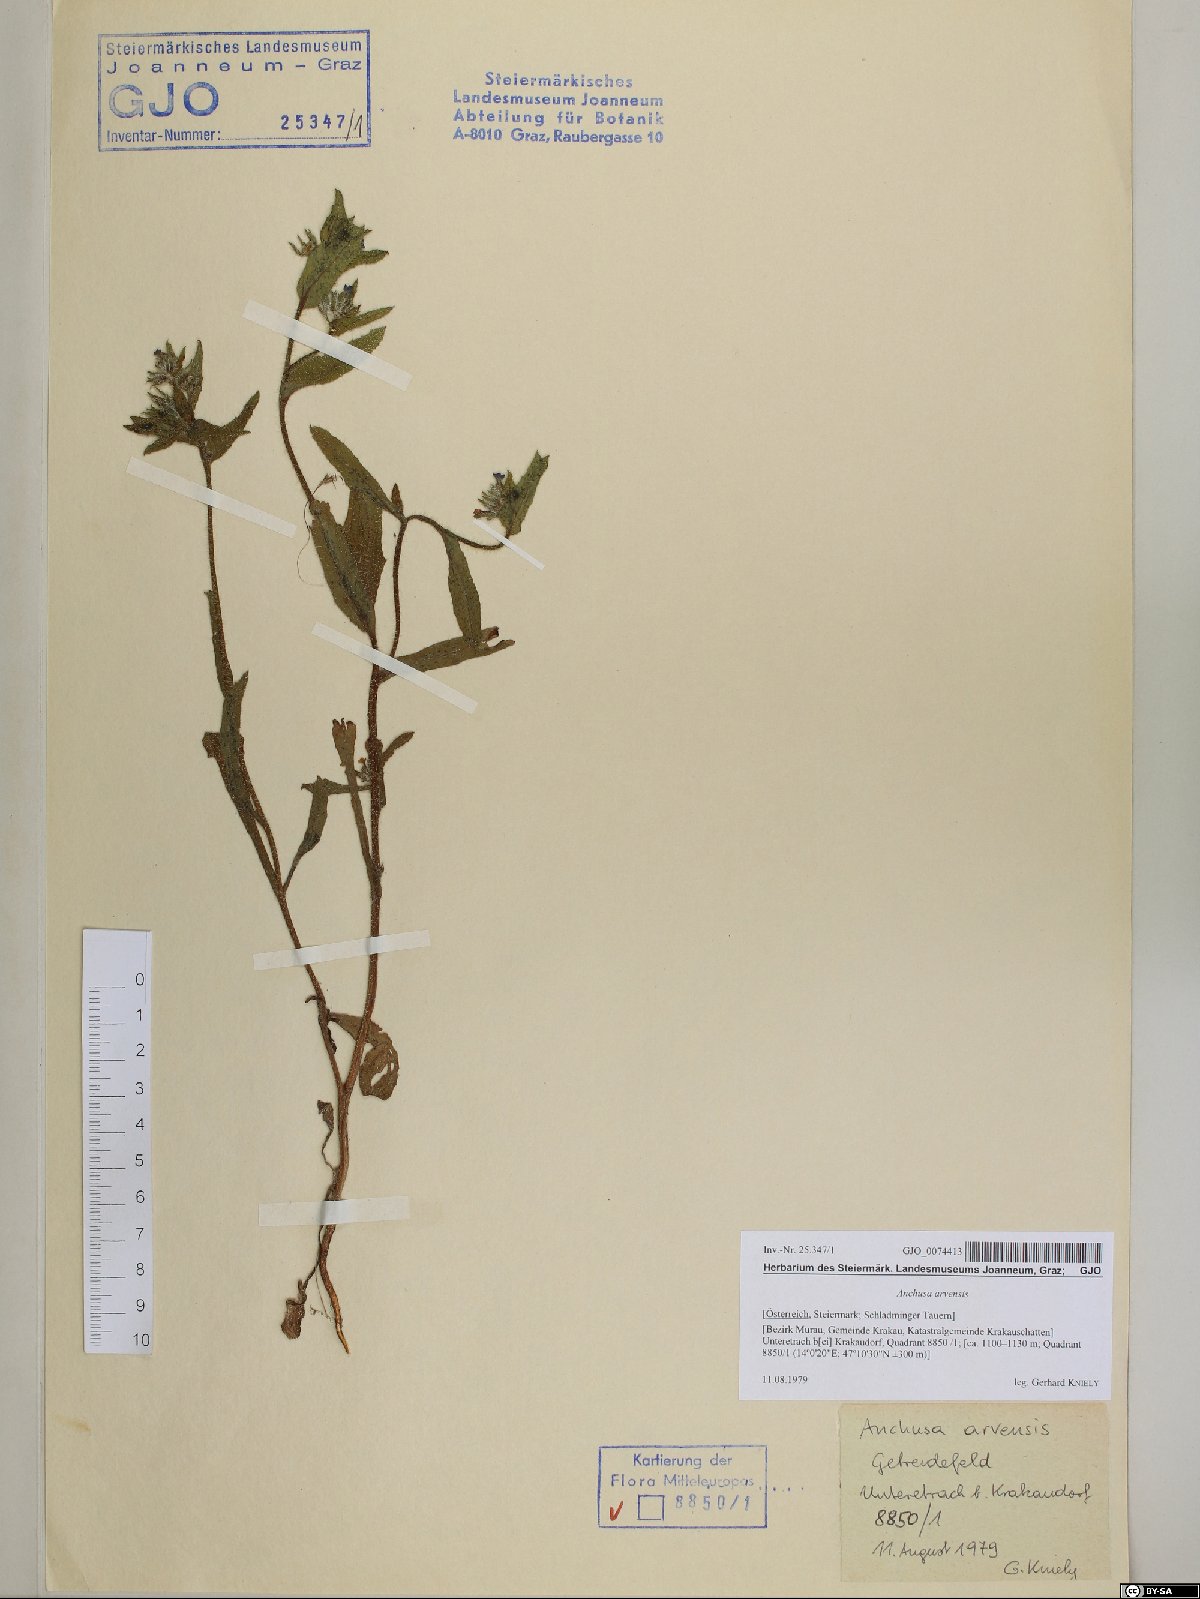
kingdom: Plantae
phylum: Tracheophyta
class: Magnoliopsida
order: Boraginales
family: Boraginaceae
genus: Lycopsis
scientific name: Lycopsis arvensis
